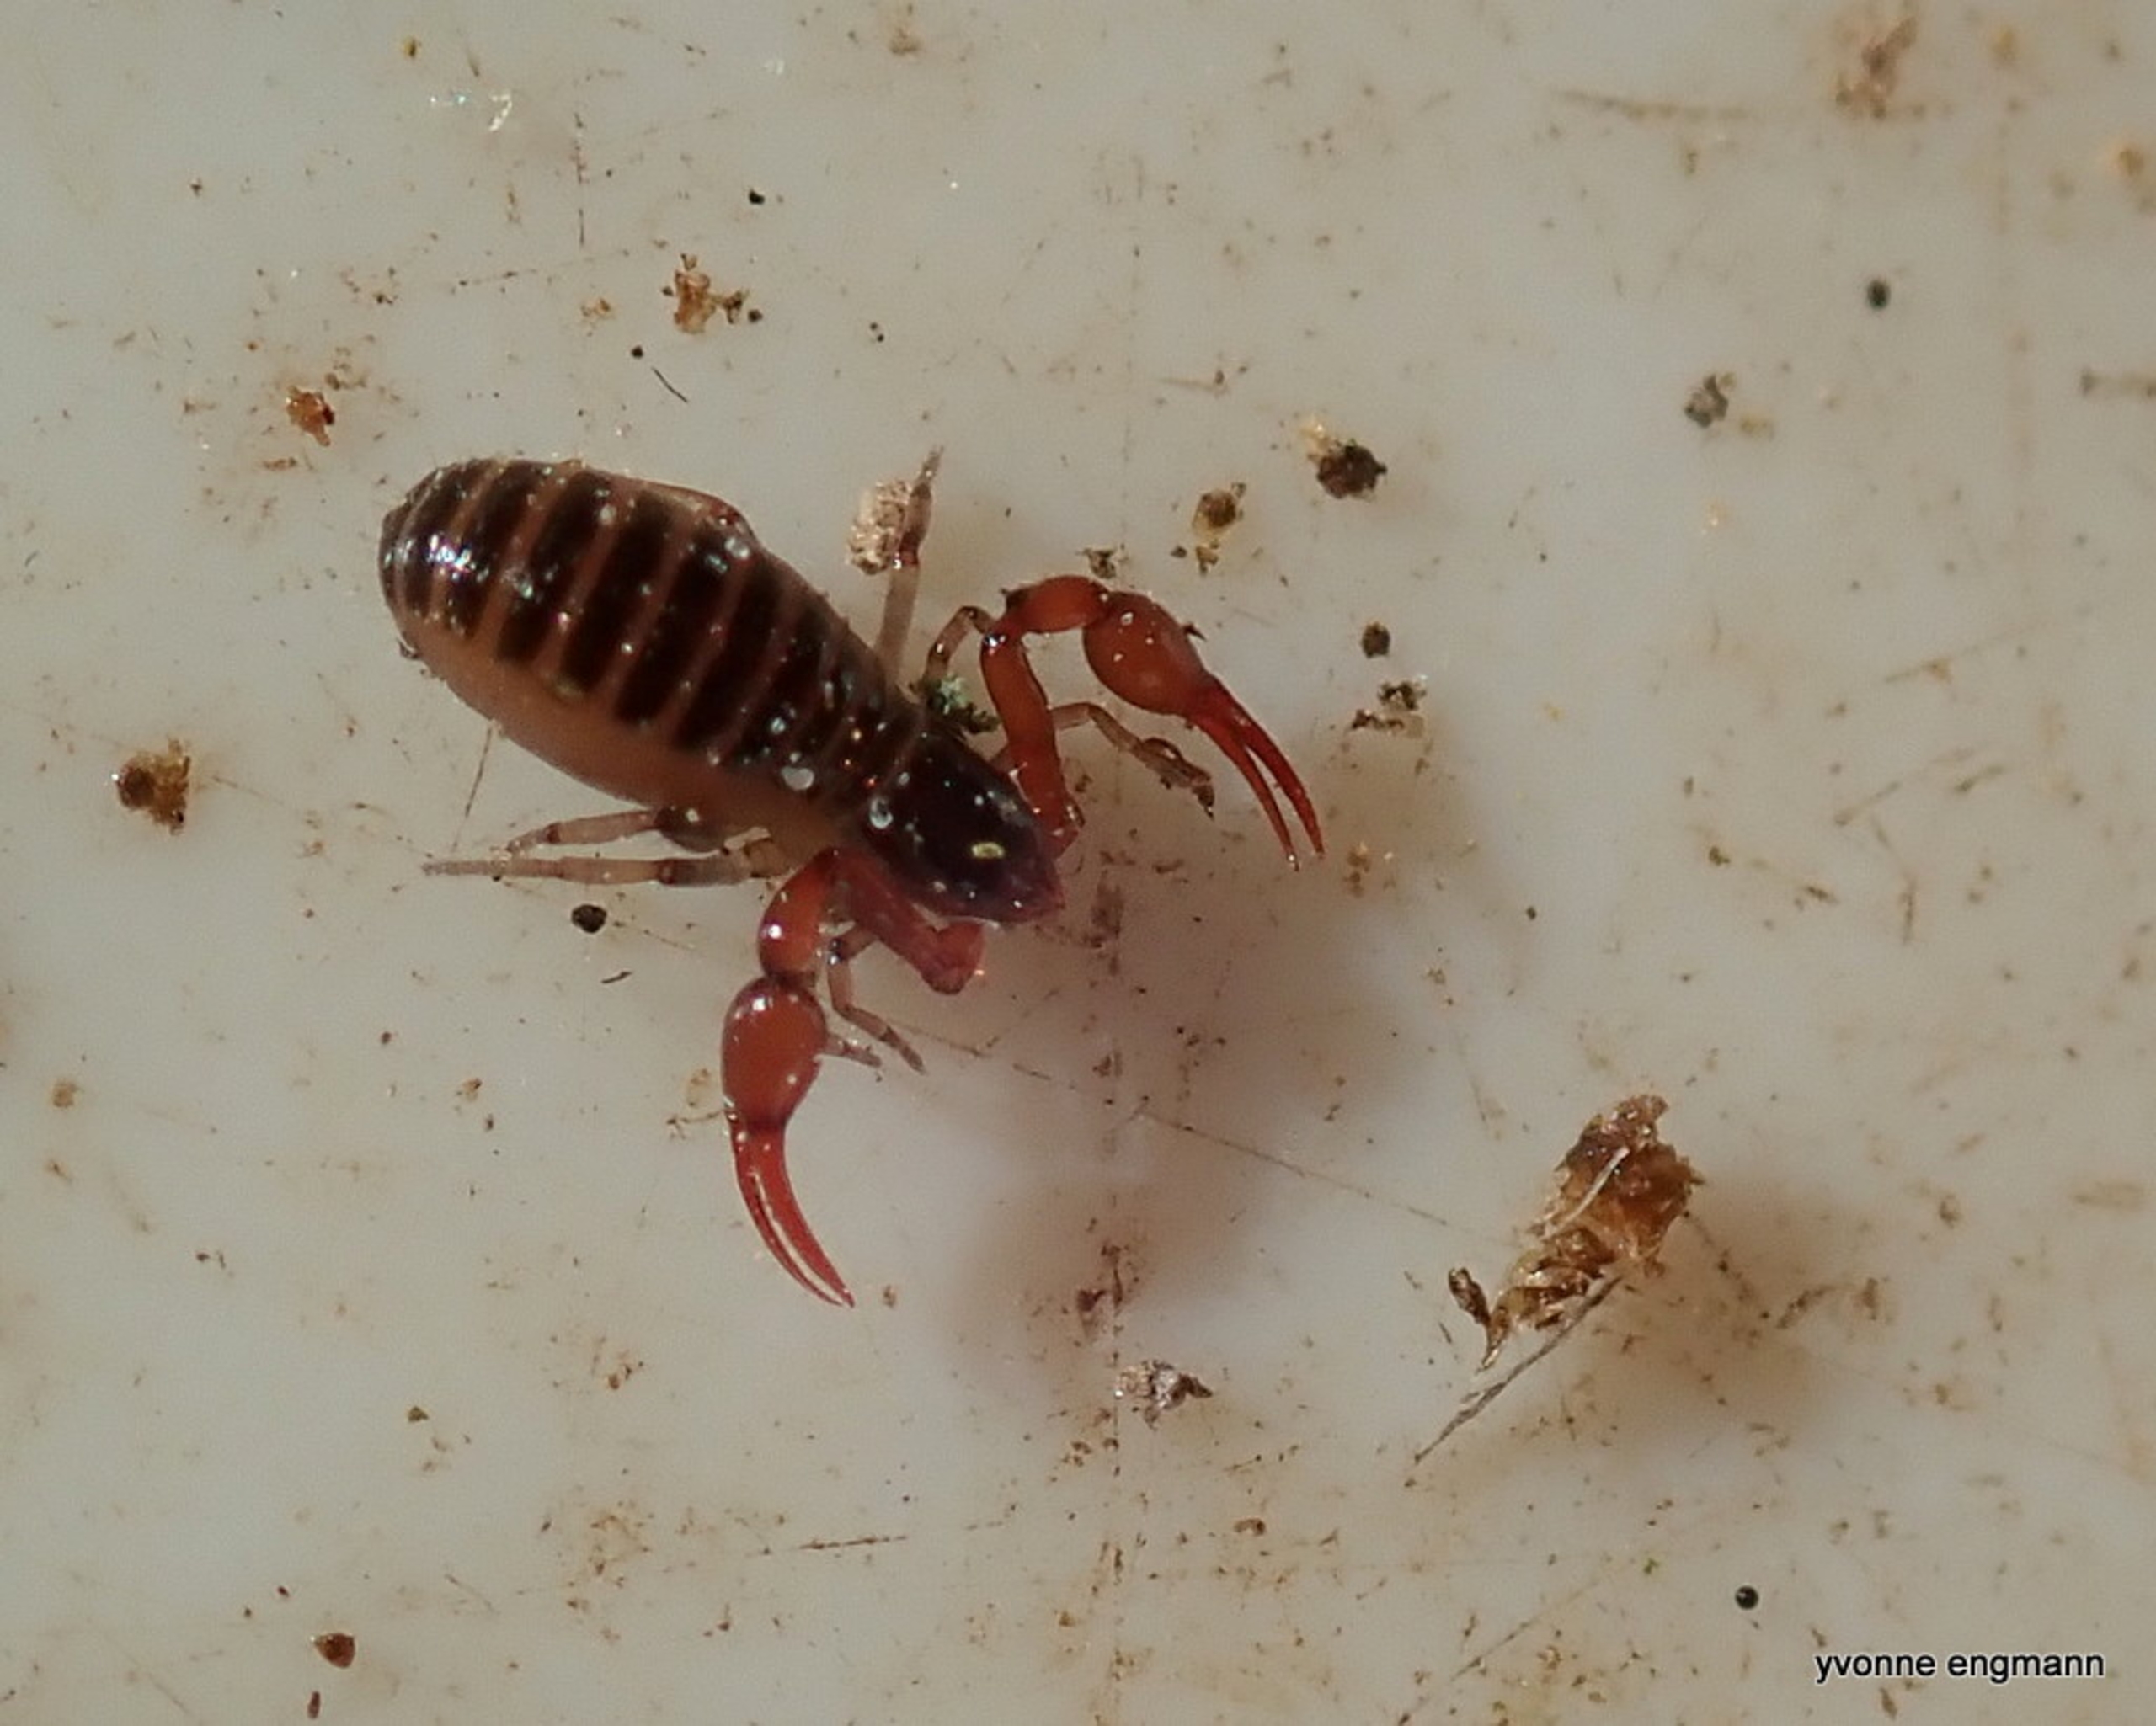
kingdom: Animalia
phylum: Arthropoda
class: Arachnida
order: Pseudoscorpiones
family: Neobisiidae
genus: Neobisium
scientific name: Neobisium carcinoides
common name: Almindelig mosskorpion
